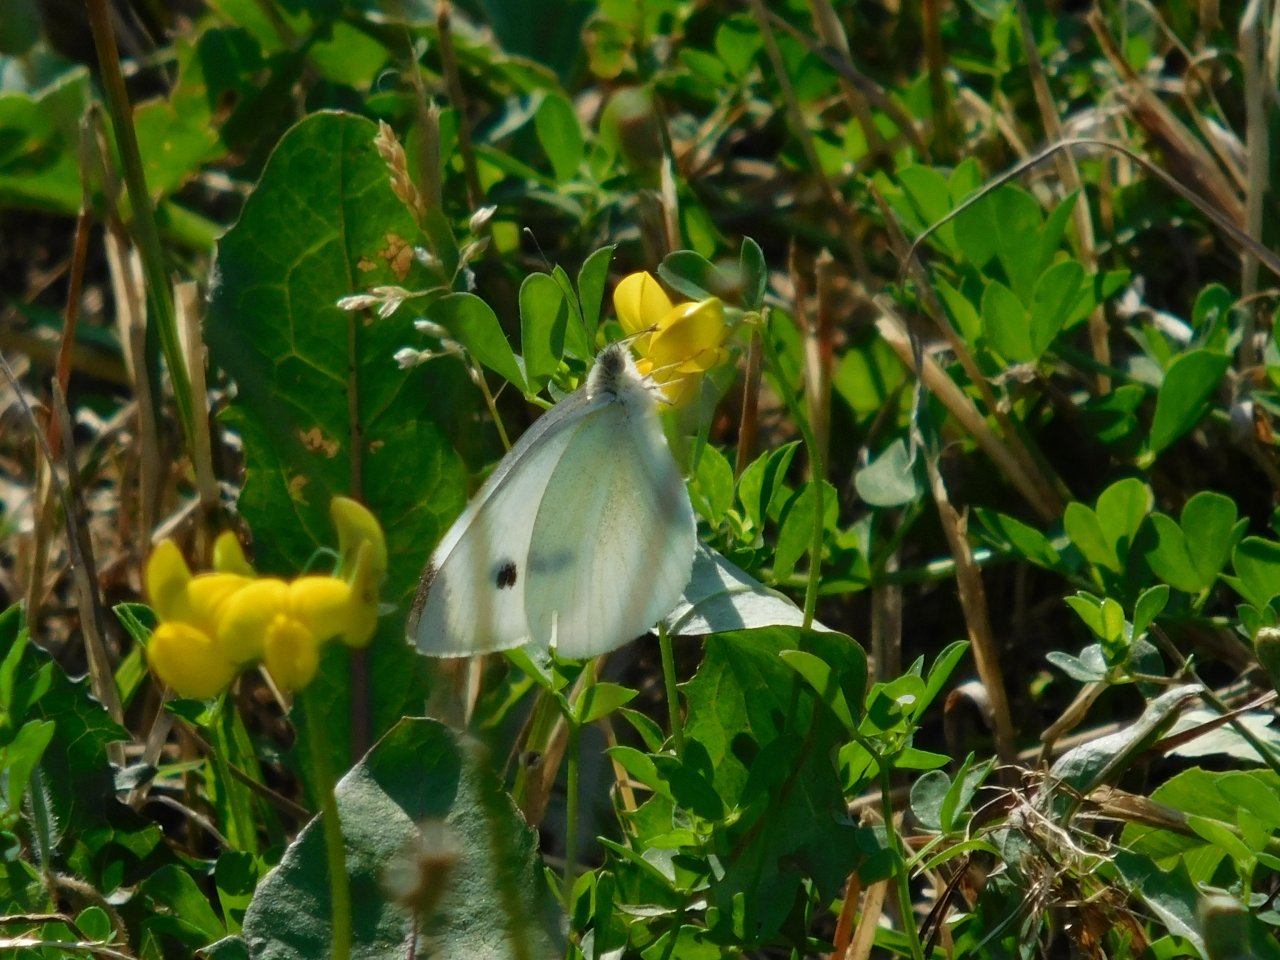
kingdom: Animalia
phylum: Arthropoda
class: Insecta
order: Lepidoptera
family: Pieridae
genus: Pieris
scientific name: Pieris rapae
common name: Cabbage White
